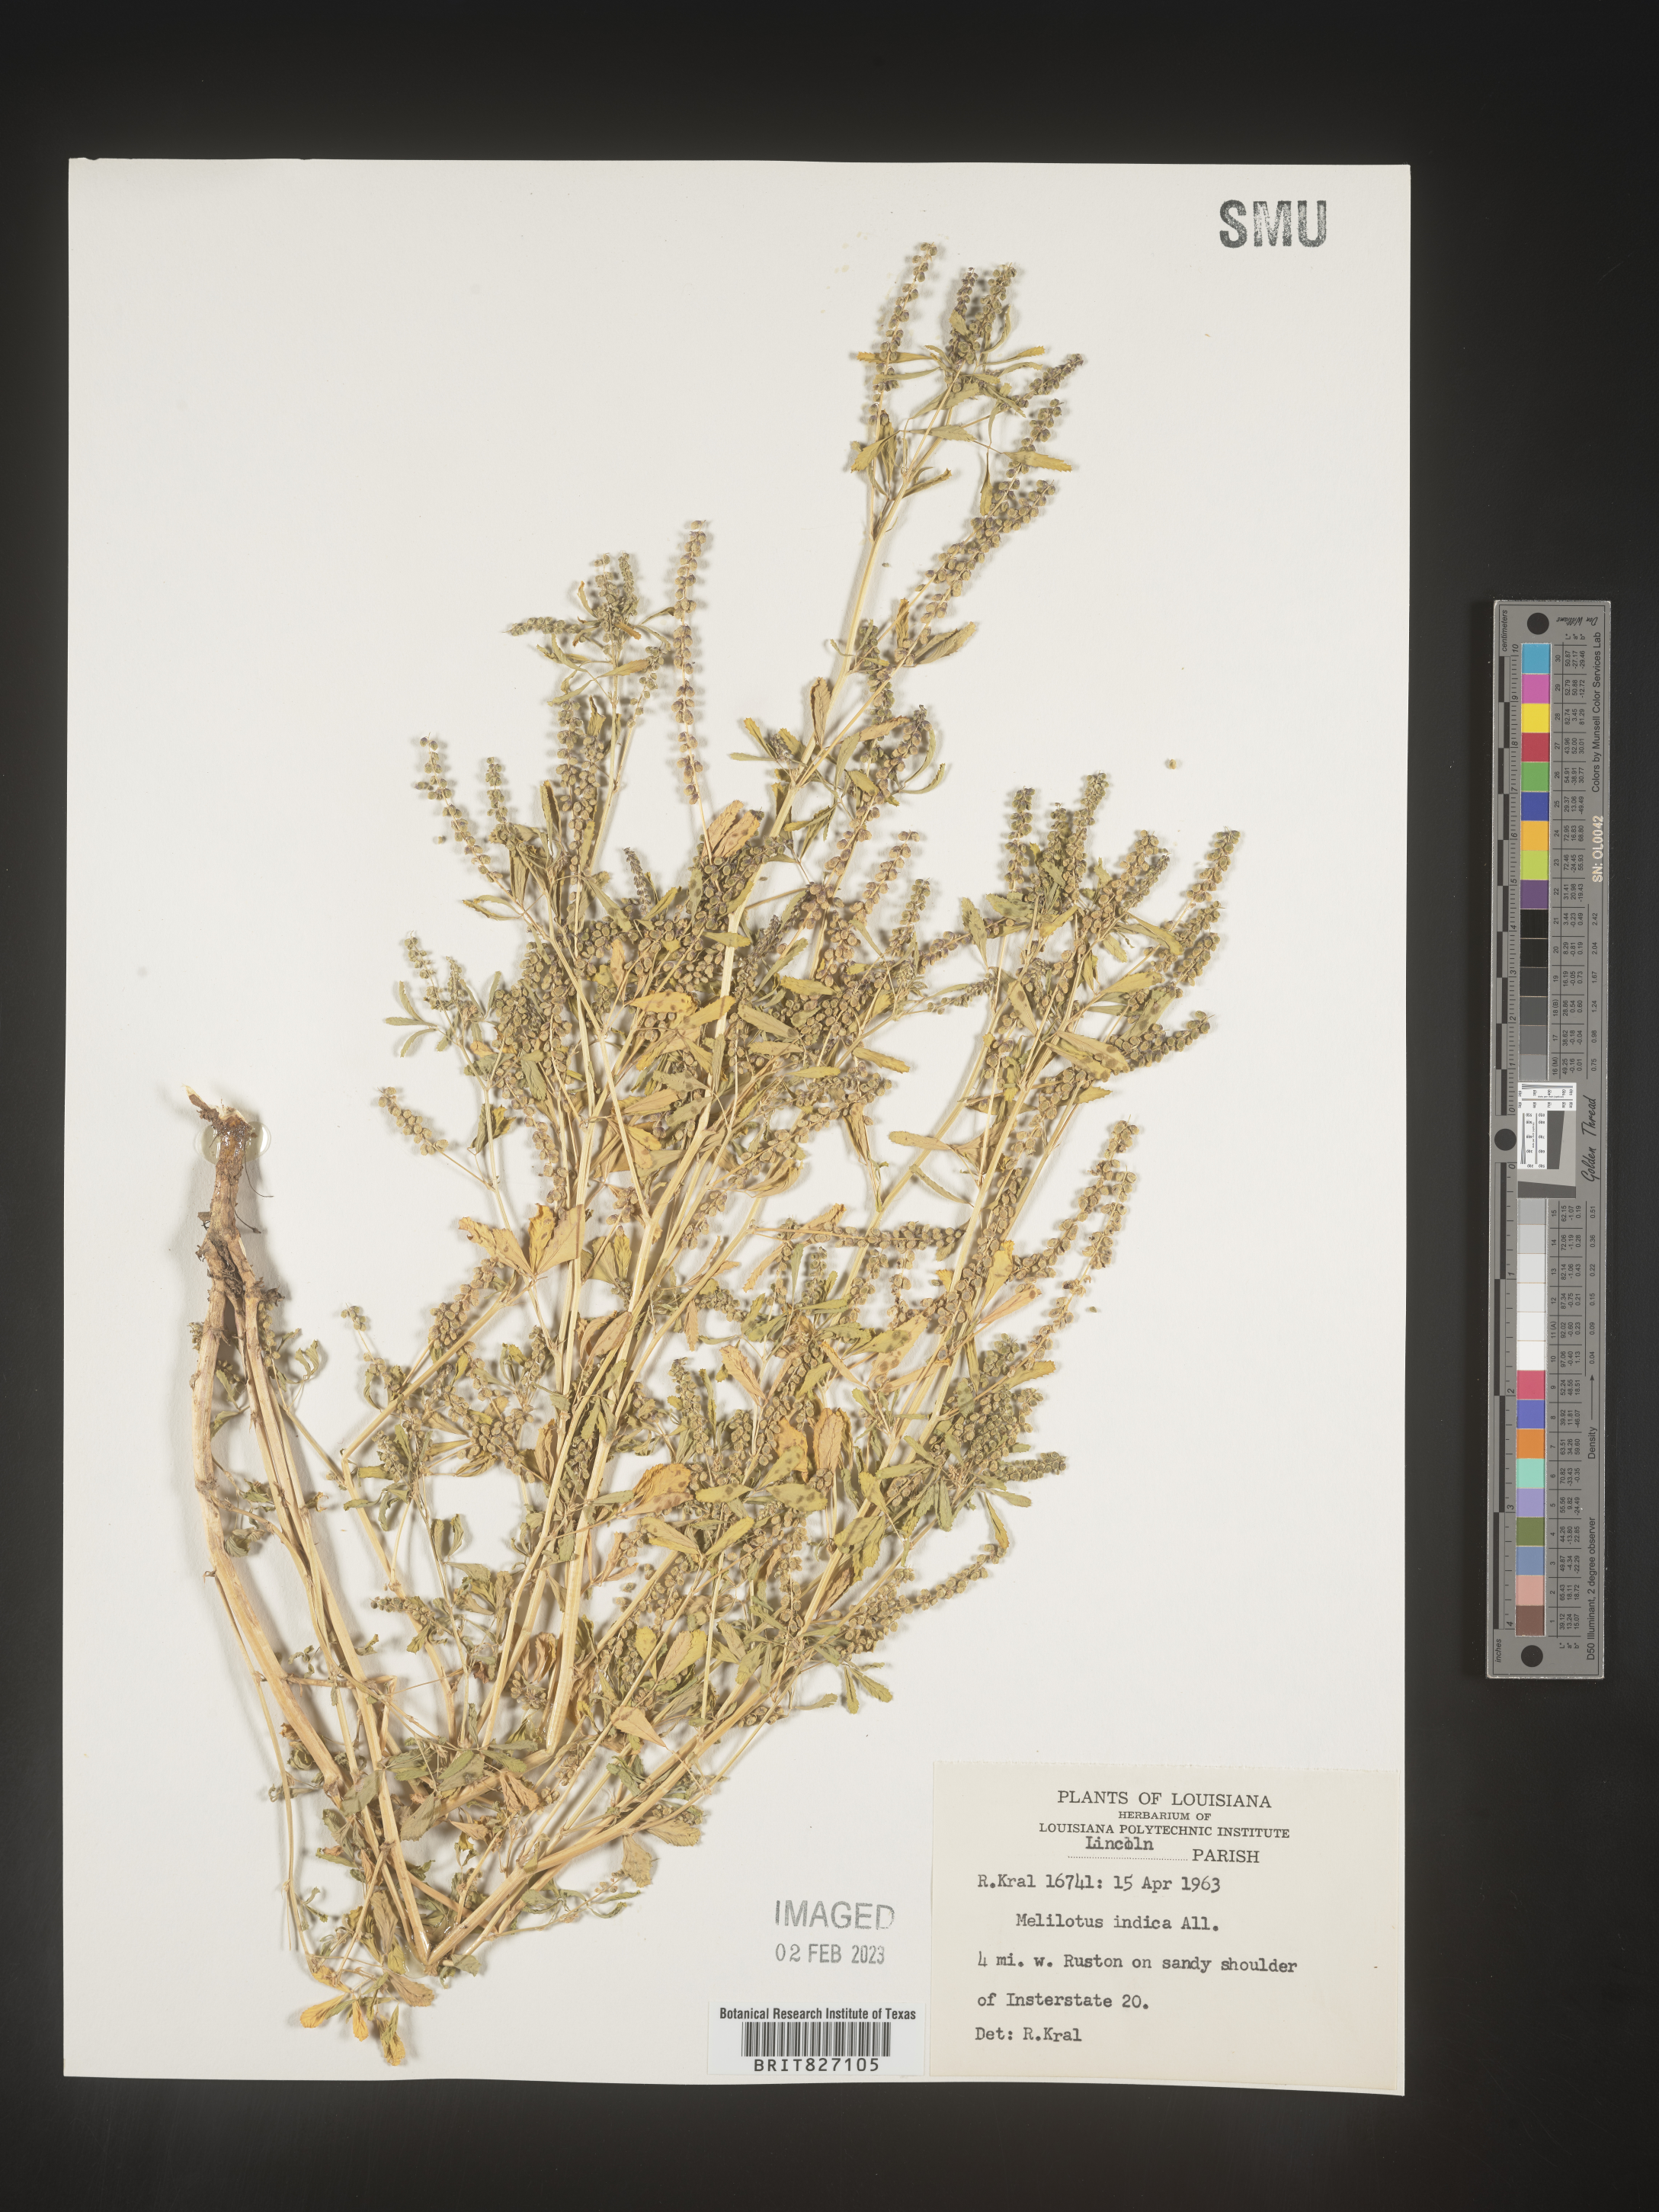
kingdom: Plantae
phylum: Tracheophyta
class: Magnoliopsida
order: Fabales
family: Fabaceae
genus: Melilotus
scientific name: Melilotus indicus
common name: Small melilot
